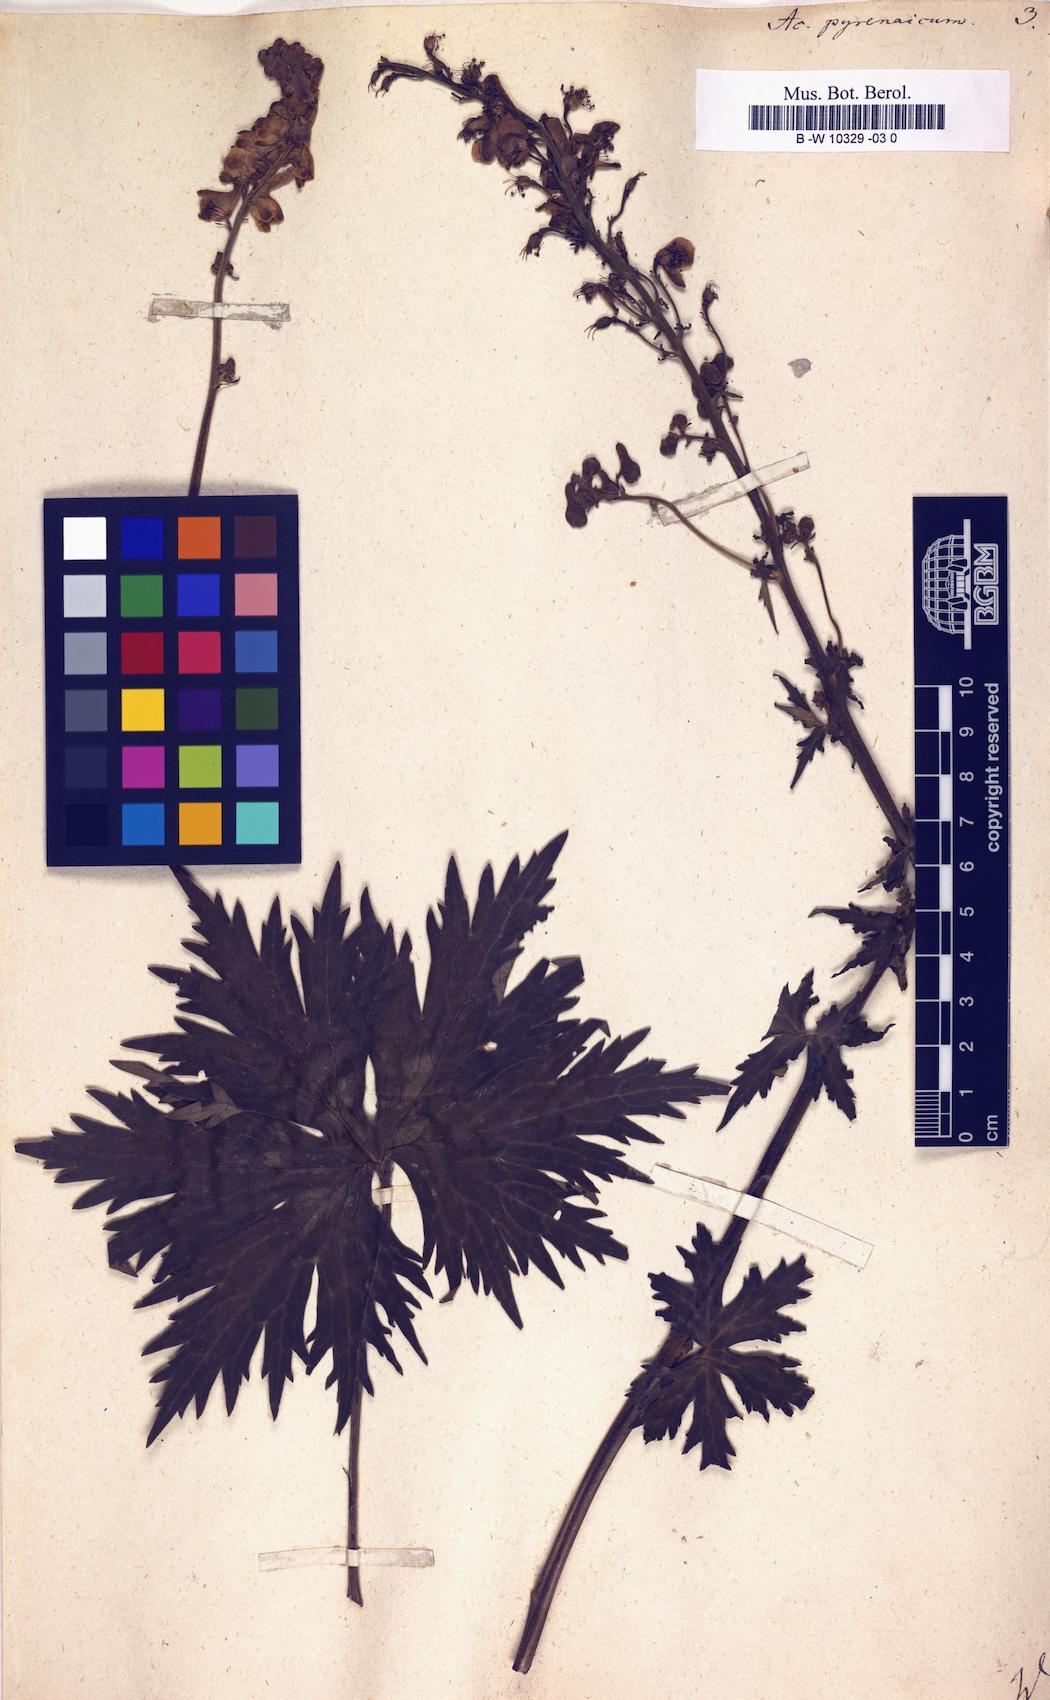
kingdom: Plantae
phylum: Tracheophyta
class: Magnoliopsida
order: Ranunculales
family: Ranunculaceae
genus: Aconitum
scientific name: Aconitum lycoctonum
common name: Wolf's-bane
